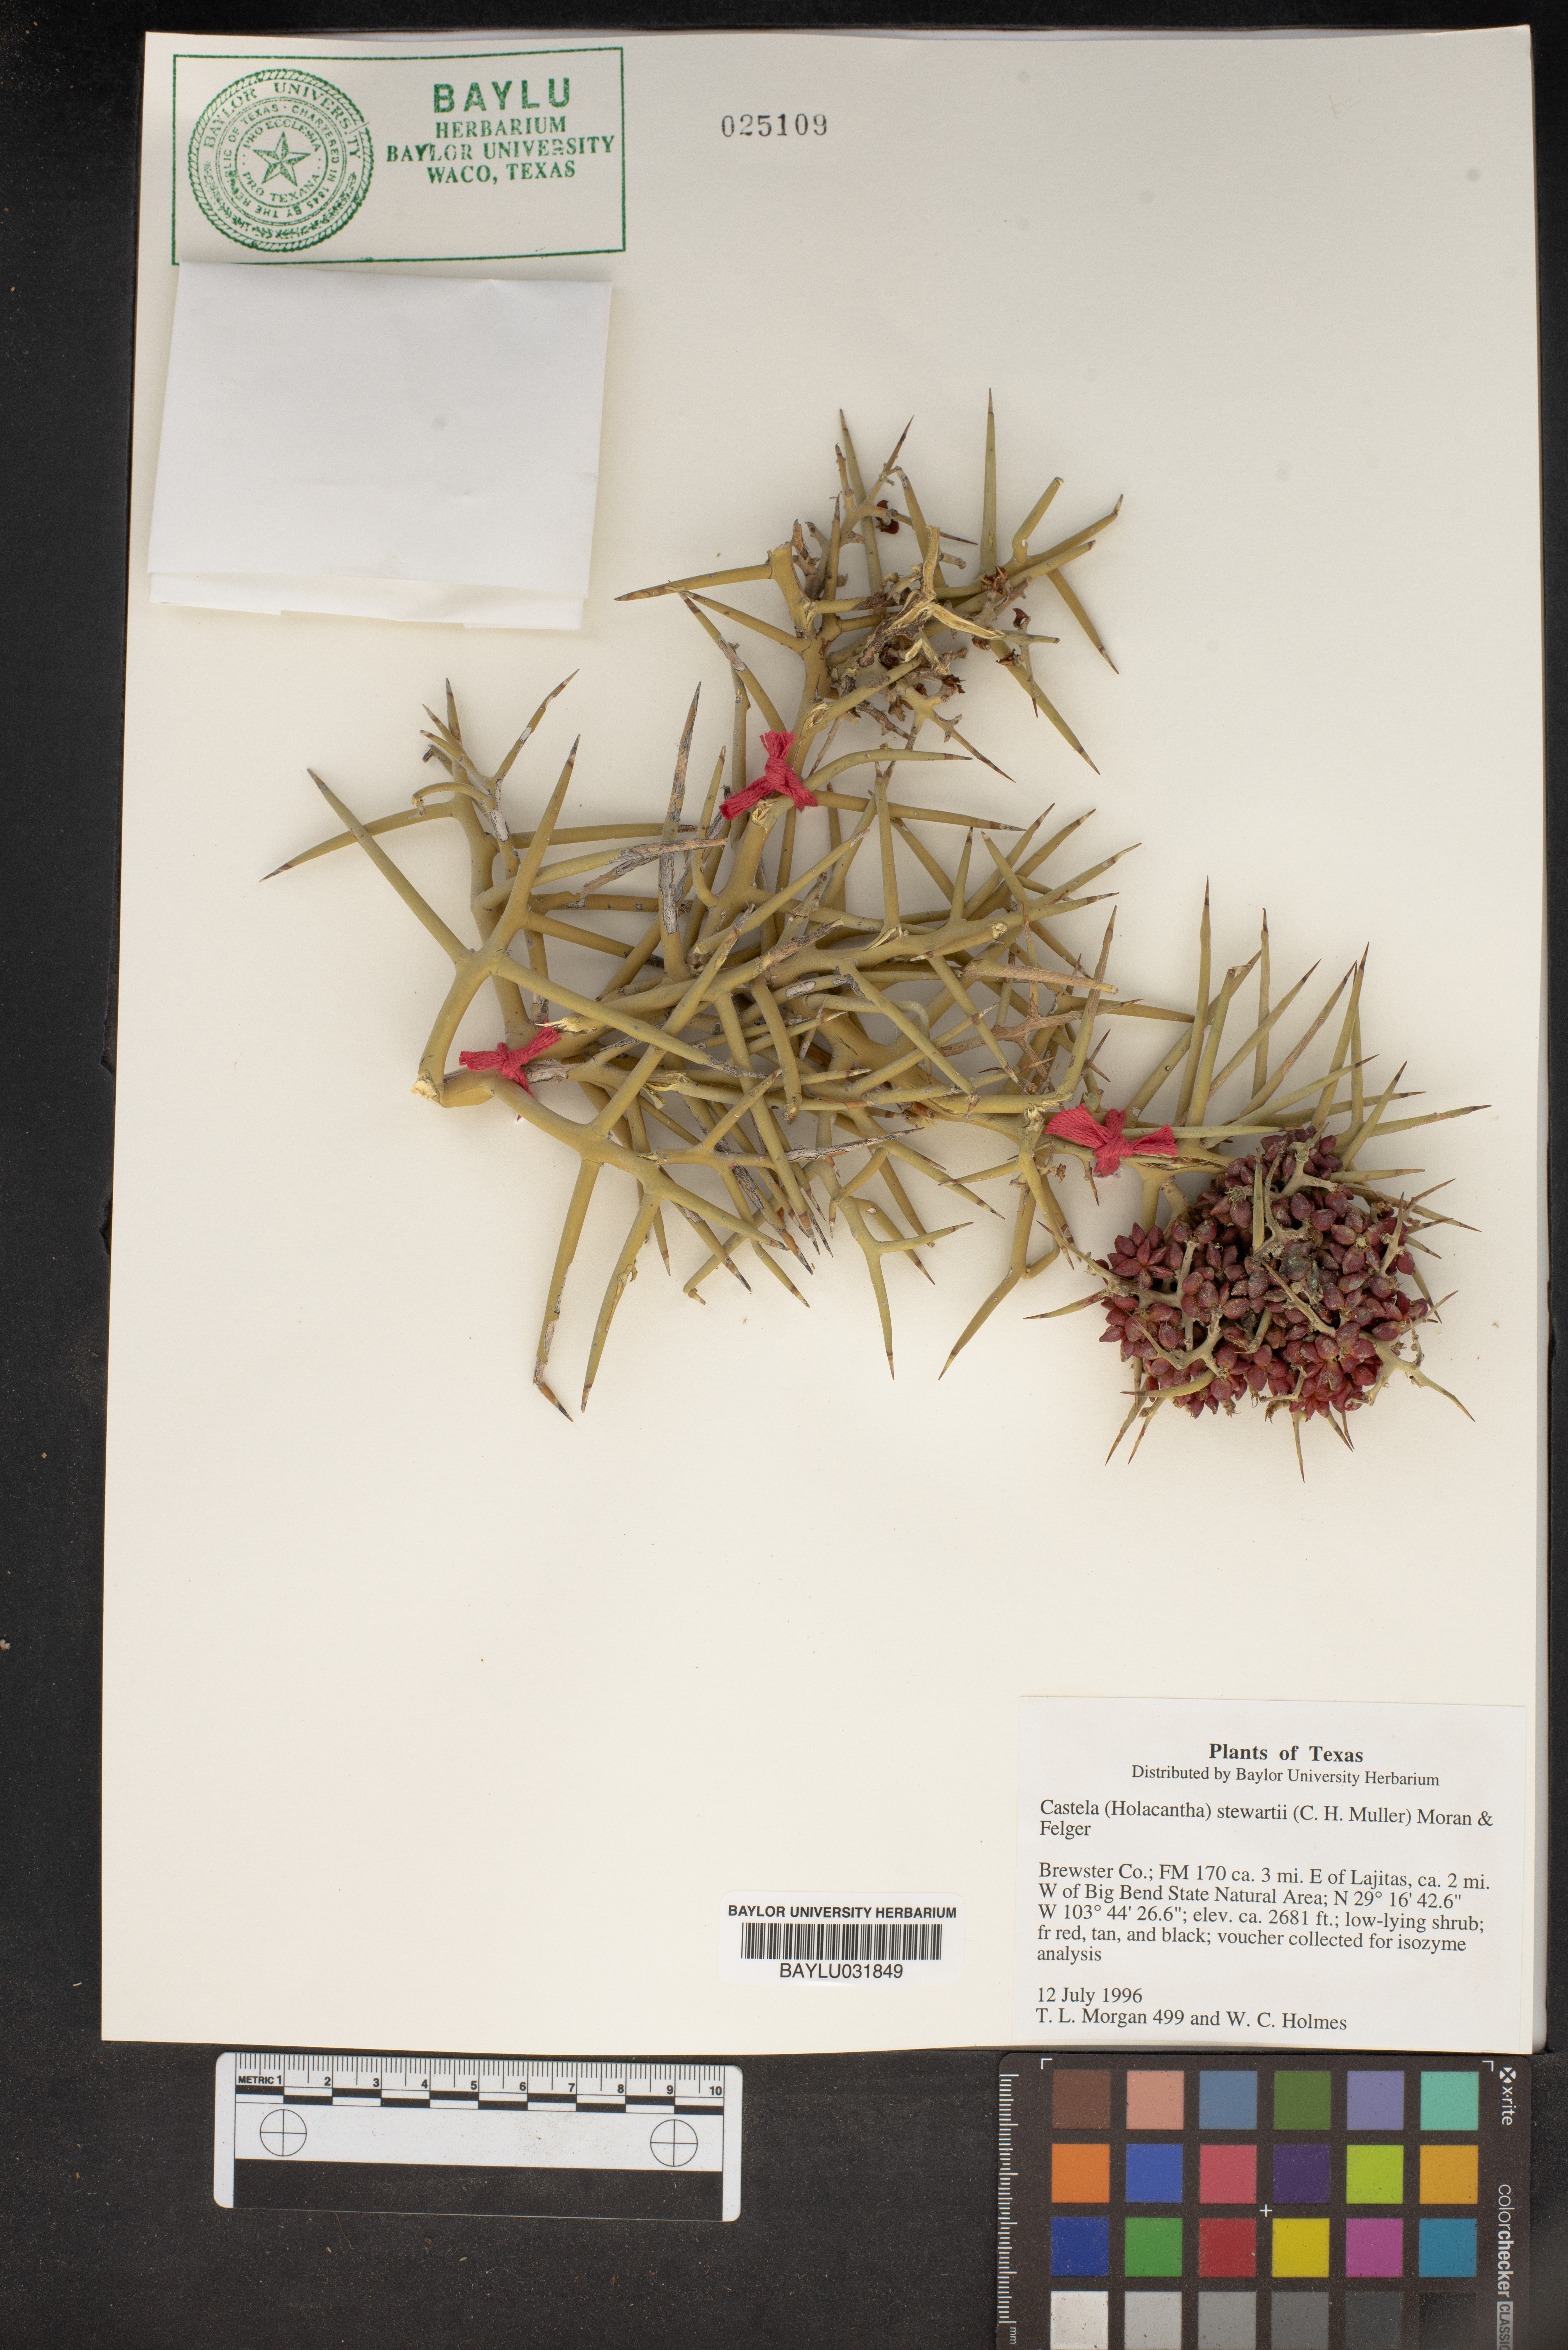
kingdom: Plantae
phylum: Tracheophyta
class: Magnoliopsida
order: Sapindales
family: Simaroubaceae
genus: Holacantha
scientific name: Holacantha stewartii
